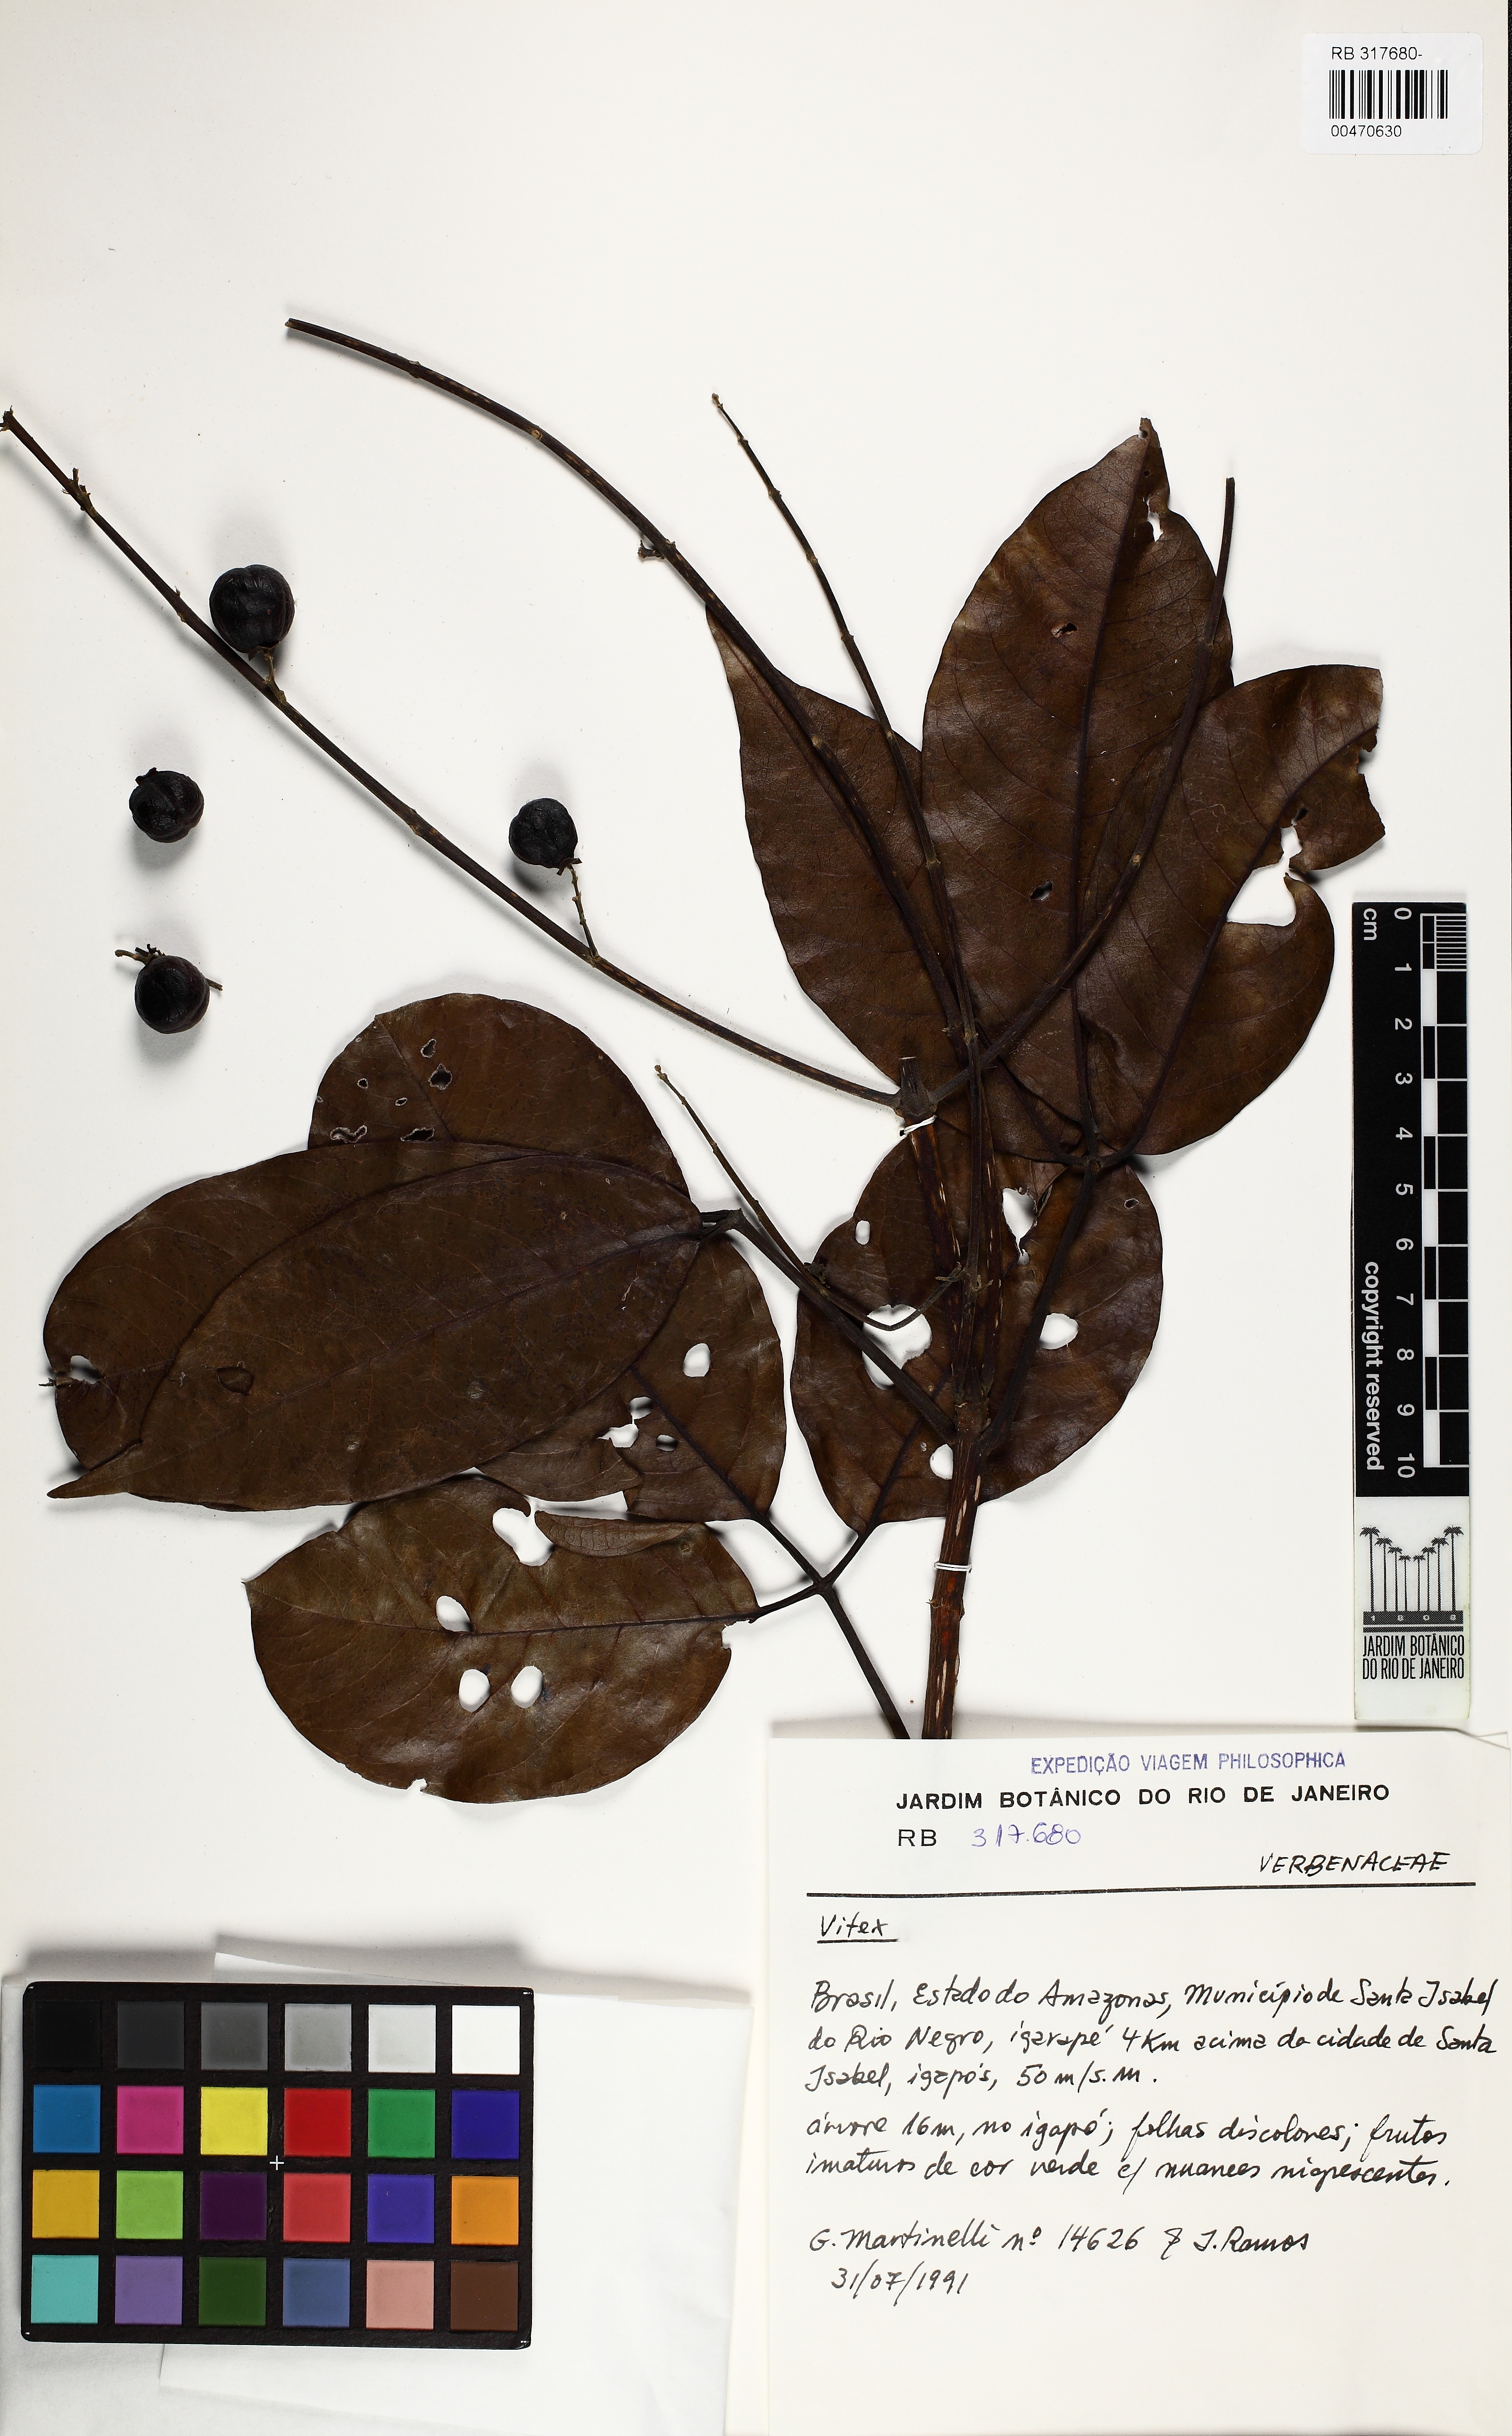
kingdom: Plantae
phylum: Tracheophyta
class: Magnoliopsida
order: Lamiales
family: Lamiaceae
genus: Vitex
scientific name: Vitex
